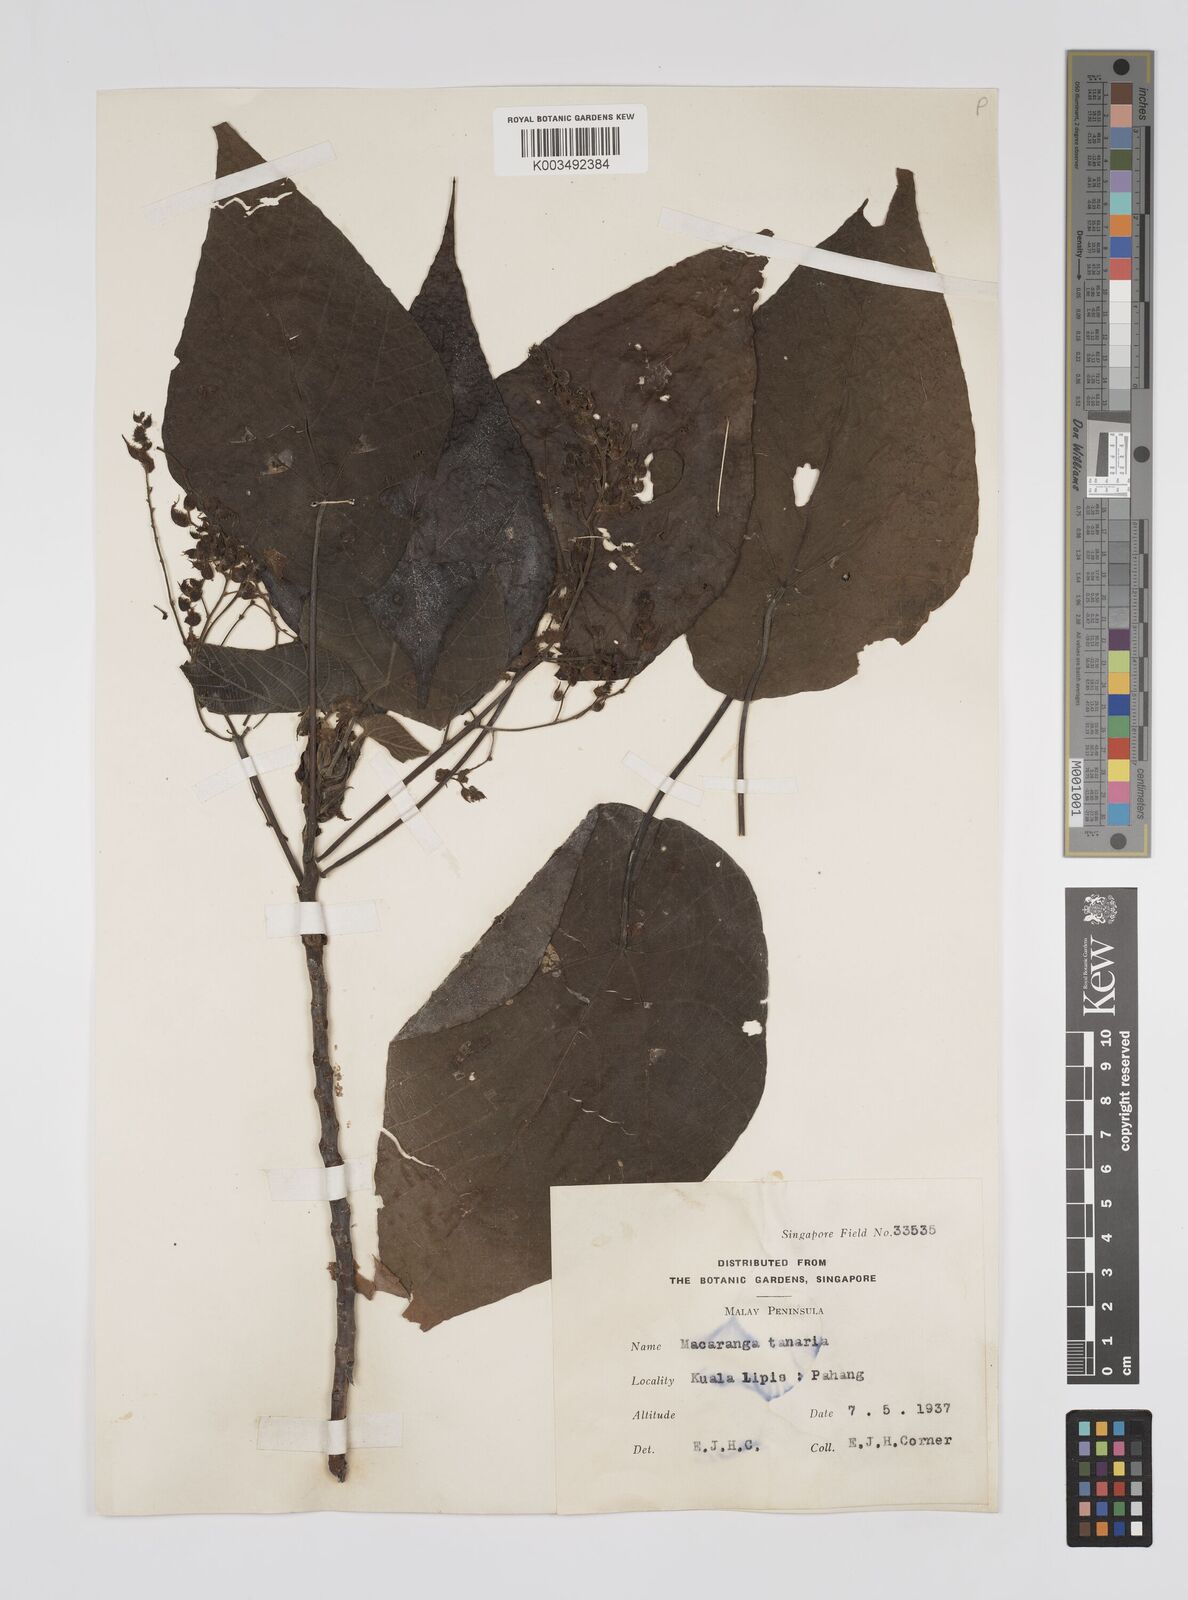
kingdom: Plantae
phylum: Tracheophyta
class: Magnoliopsida
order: Malpighiales
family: Euphorbiaceae
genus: Macaranga
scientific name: Macaranga tanarius
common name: Parasol leaf tree
